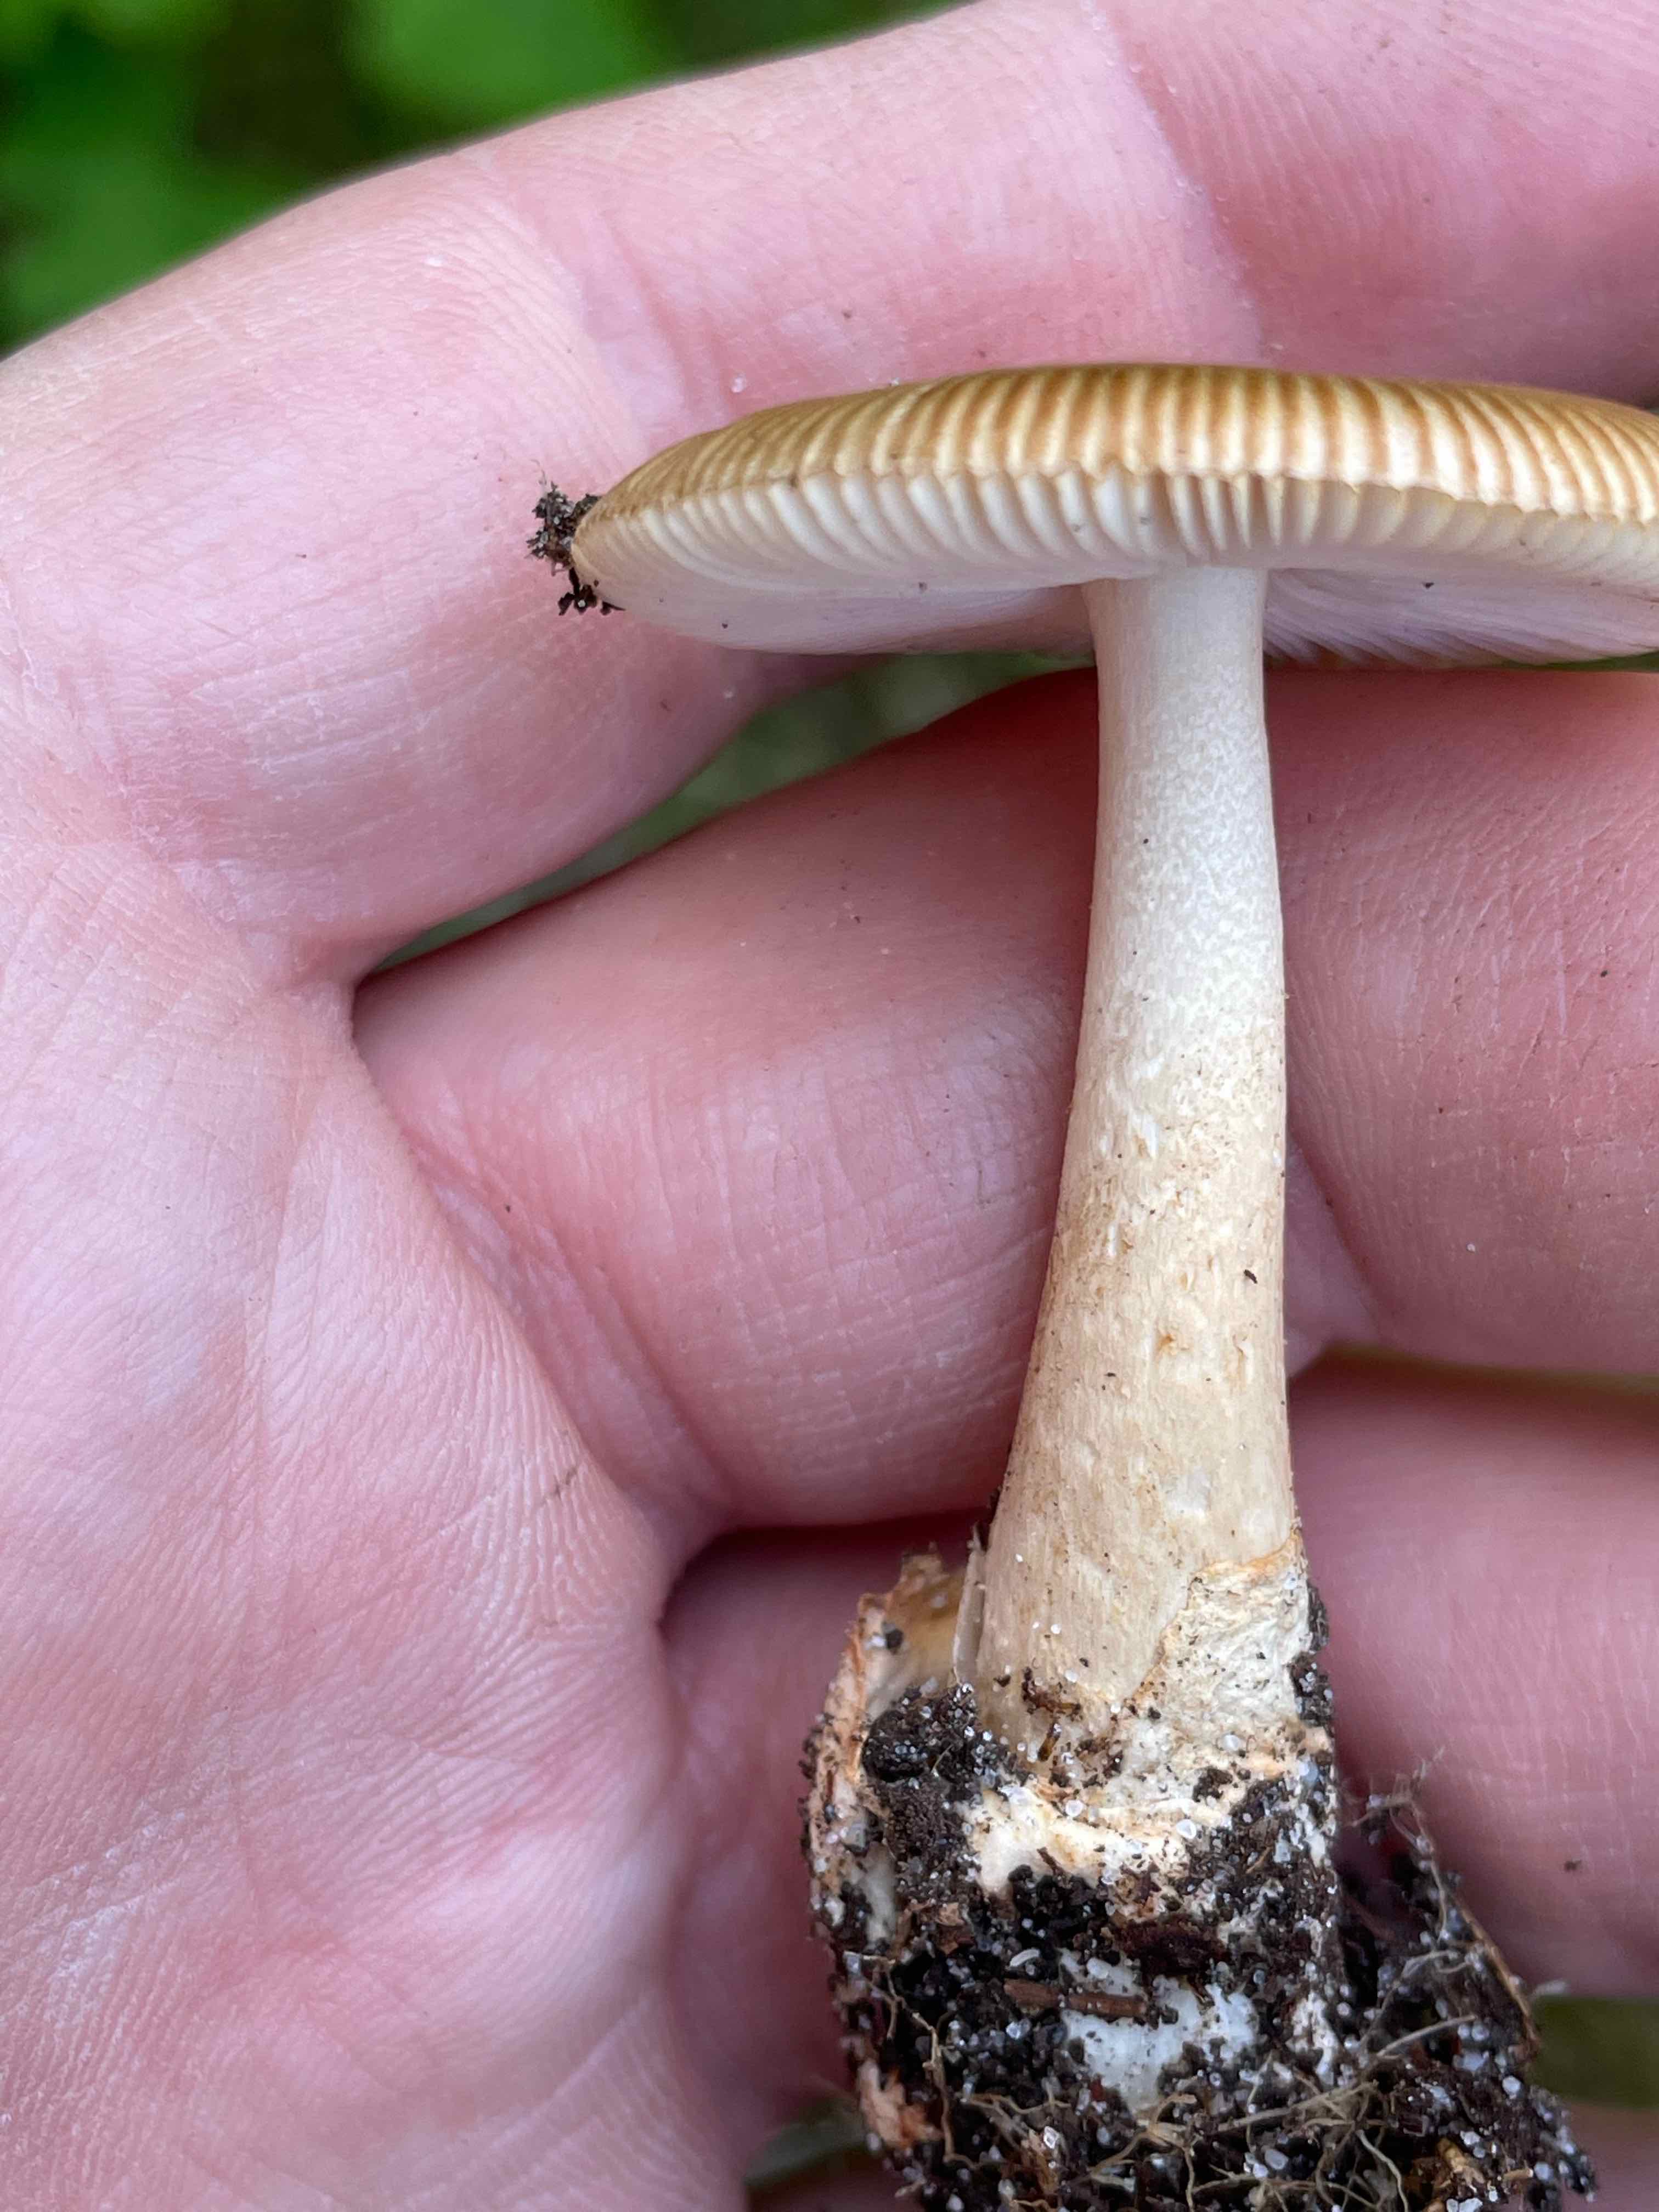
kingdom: Fungi
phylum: Basidiomycota
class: Agaricomycetes
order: Agaricales
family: Amanitaceae
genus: Amanita
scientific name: Amanita fulva
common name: brun kam-fluesvamp
